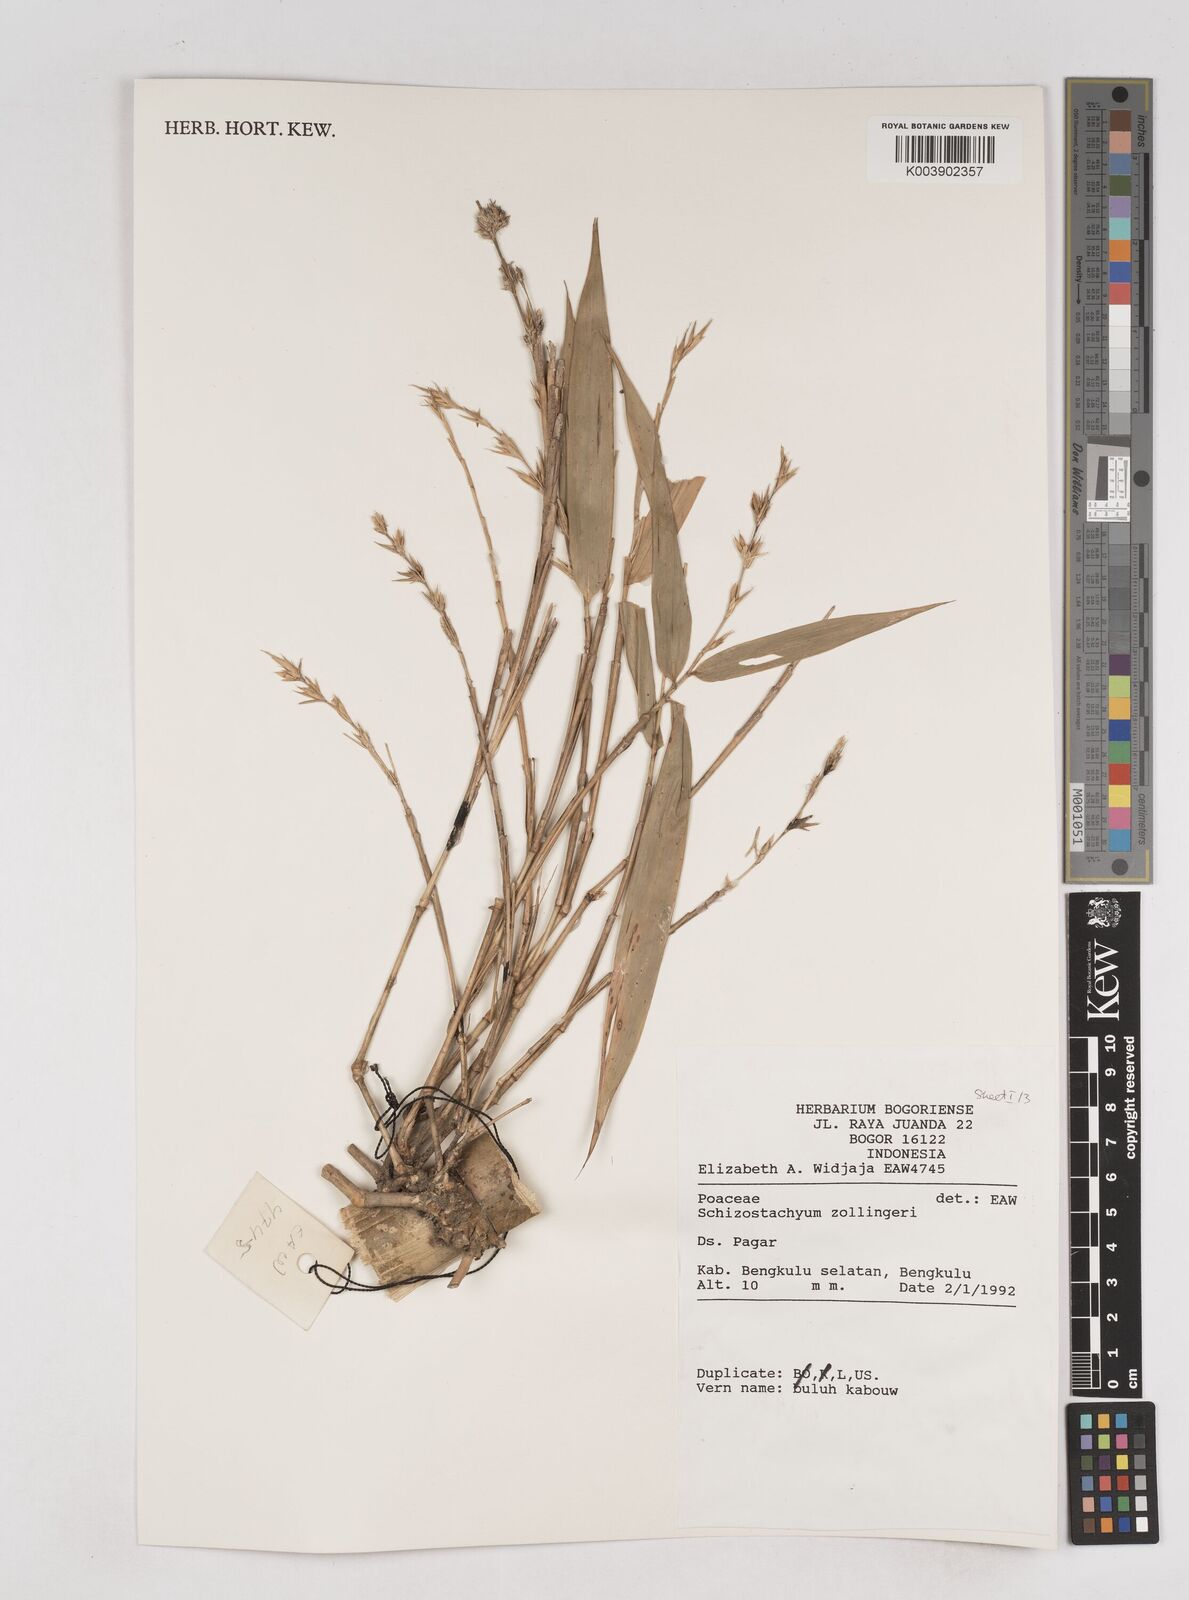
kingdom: Plantae
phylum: Tracheophyta
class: Liliopsida
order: Poales
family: Poaceae
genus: Schizostachyum
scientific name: Schizostachyum zollingeri
